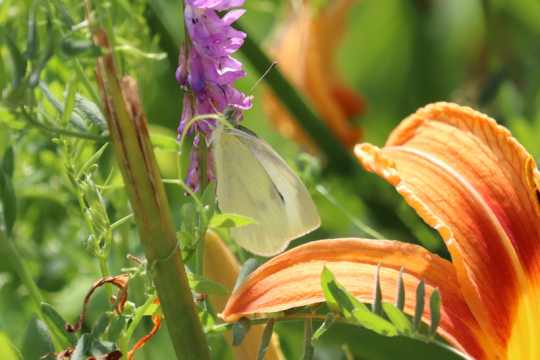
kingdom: Animalia
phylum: Arthropoda
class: Insecta
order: Lepidoptera
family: Pieridae
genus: Pieris
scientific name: Pieris rapae
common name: Cabbage White
